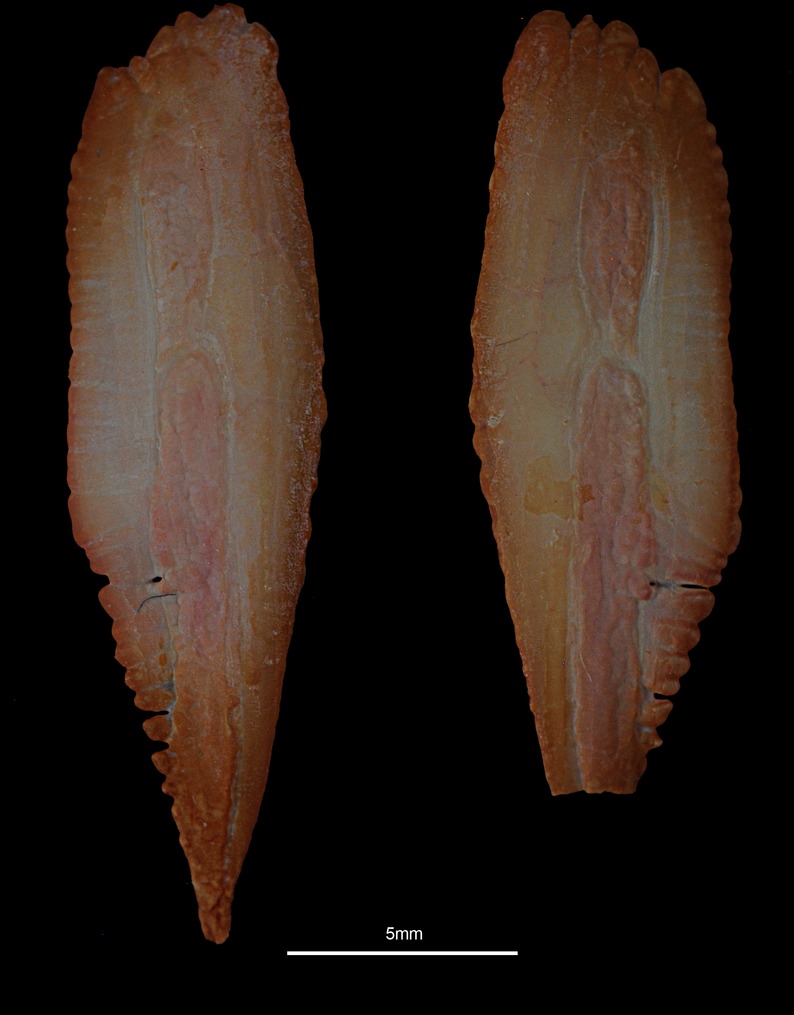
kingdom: Animalia
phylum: Chordata
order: Gadiformes
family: Gadidae
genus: Merlangius
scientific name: Merlangius merlangus
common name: Whiting
